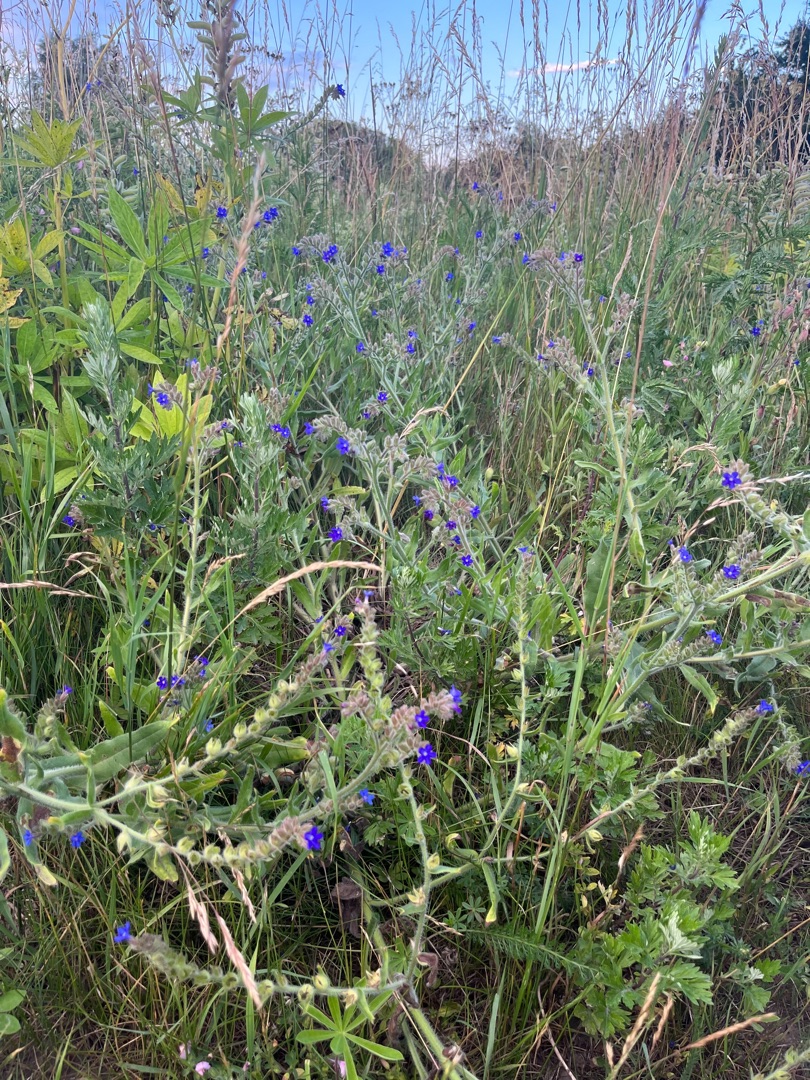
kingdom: Plantae
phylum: Tracheophyta
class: Magnoliopsida
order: Boraginales
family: Boraginaceae
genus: Anchusa
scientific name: Anchusa officinalis
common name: Læge-oksetunge
